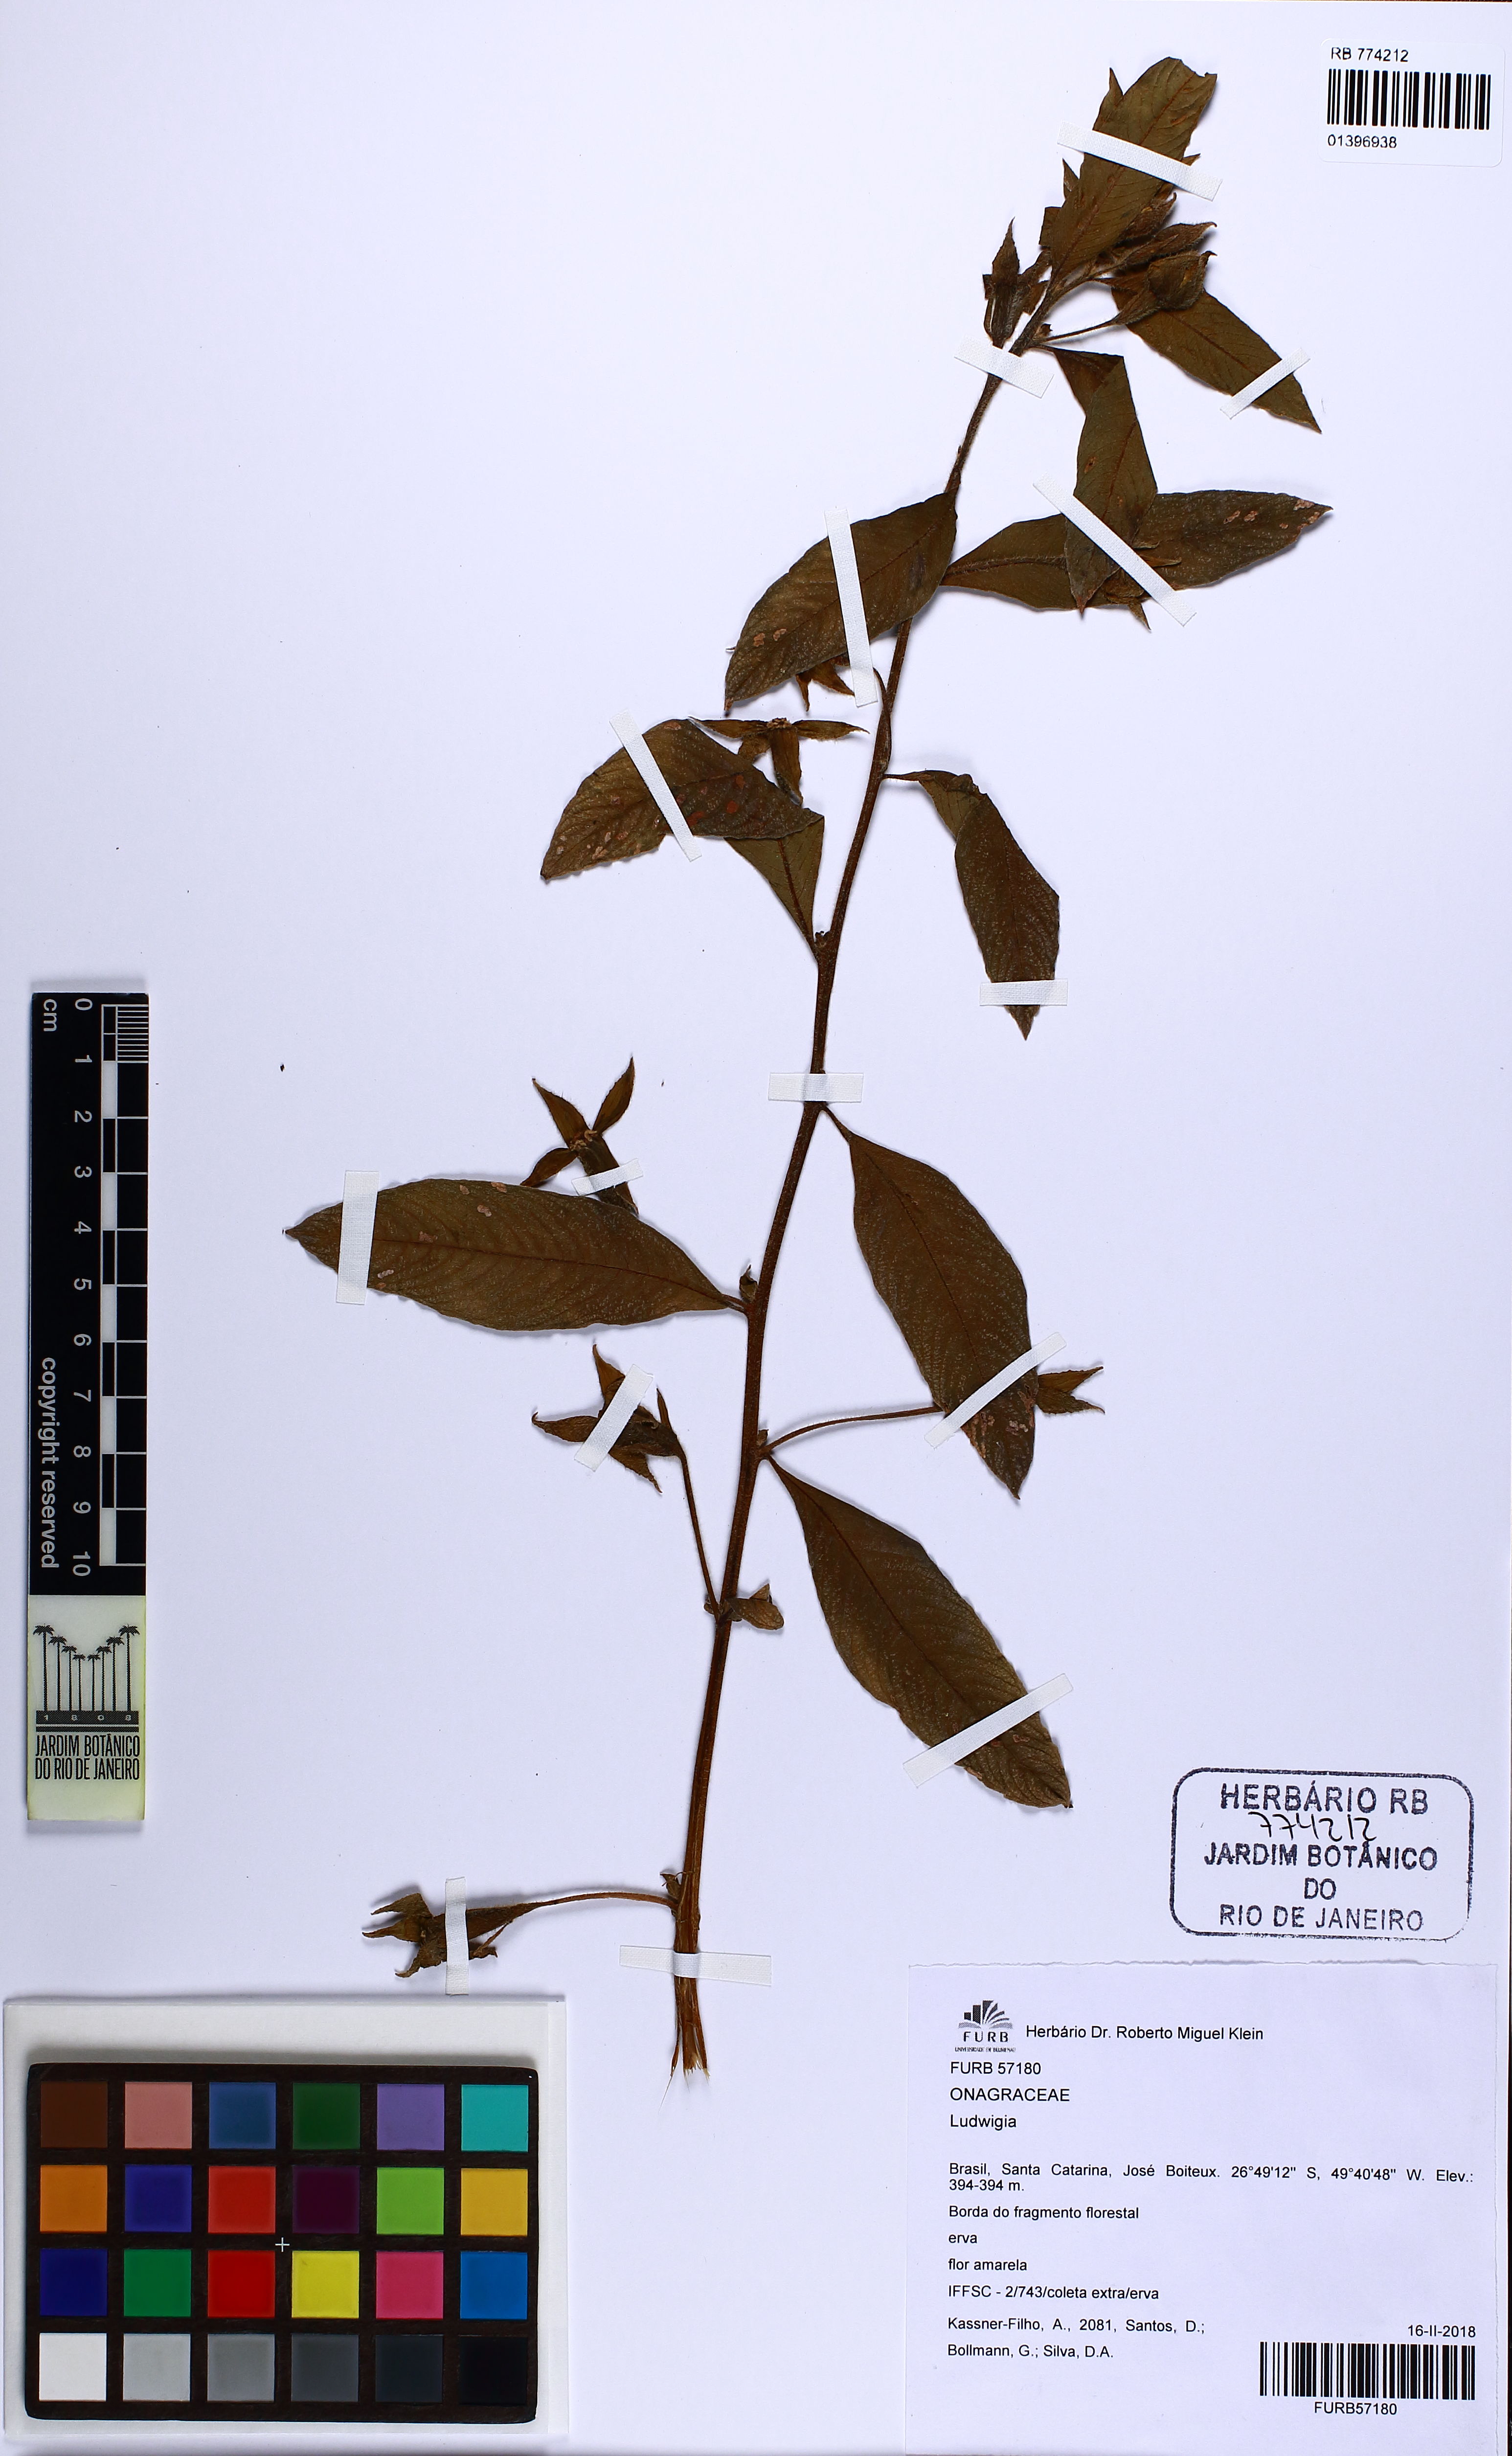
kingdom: Plantae
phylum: Tracheophyta
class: Magnoliopsida
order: Myrtales
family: Onagraceae
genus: Ludwigia
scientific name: Ludwigia
